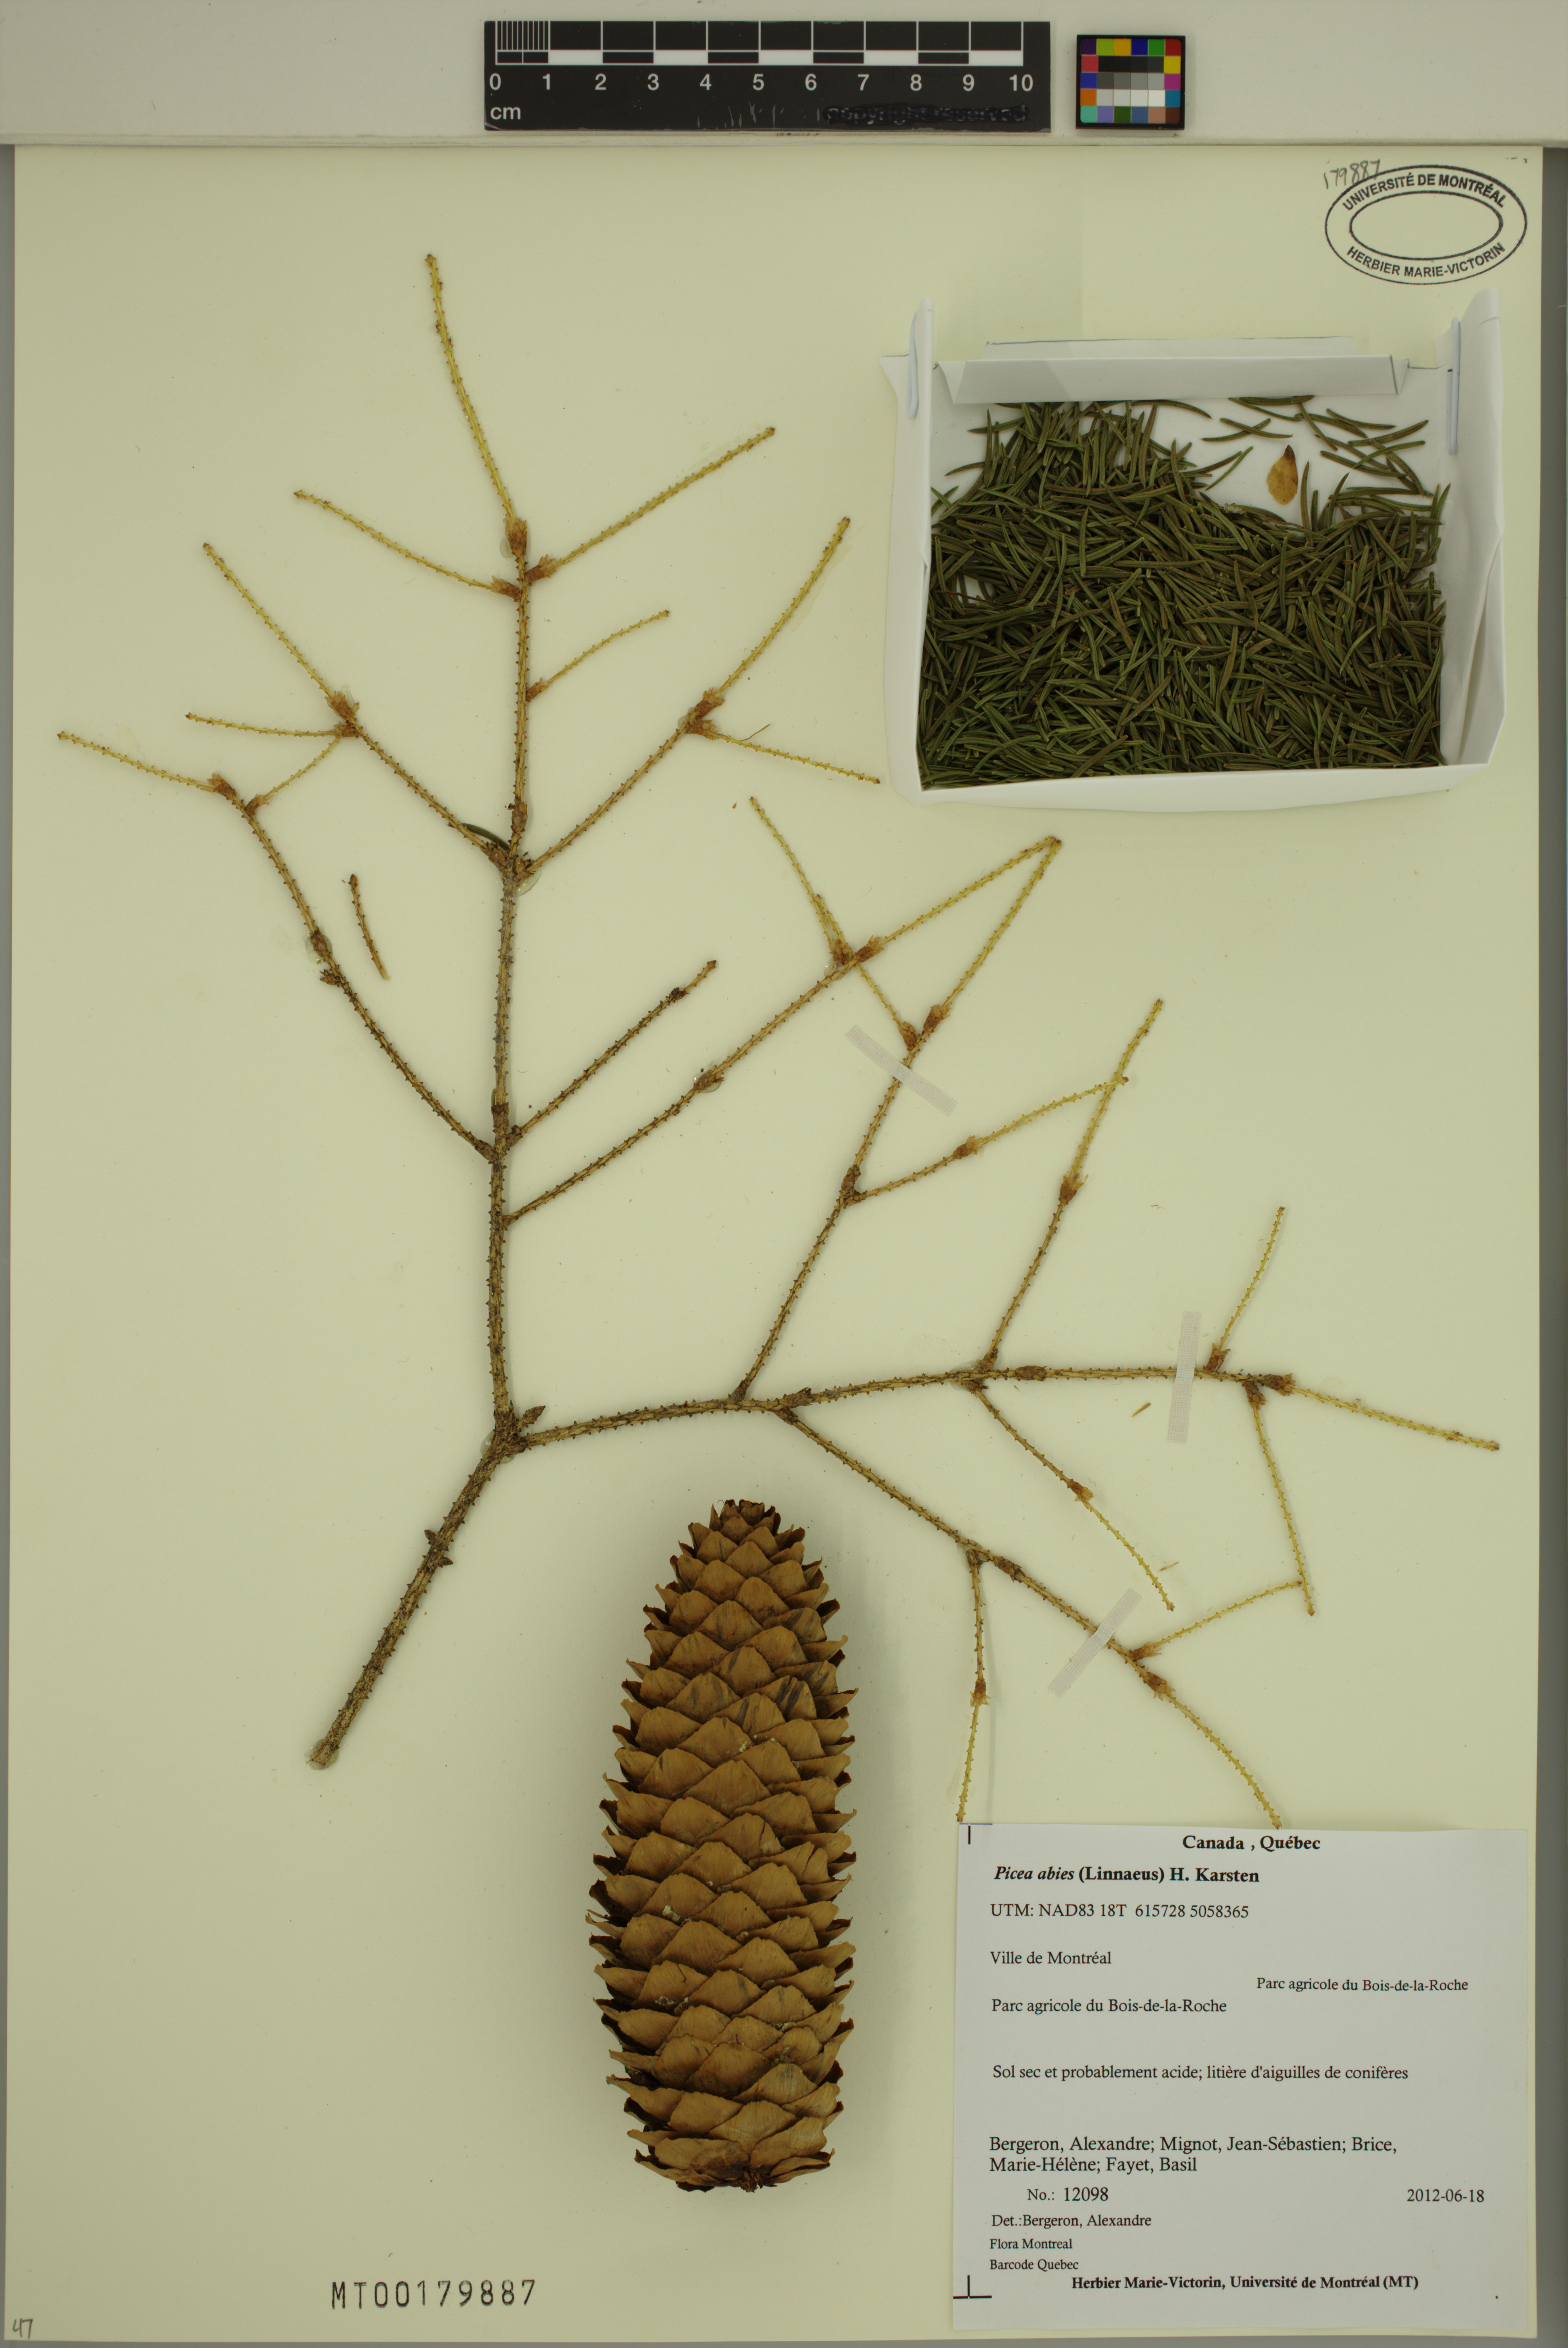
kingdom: Plantae
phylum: Tracheophyta
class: Pinopsida
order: Pinales
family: Pinaceae
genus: Picea
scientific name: Picea abies
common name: Norway spruce
